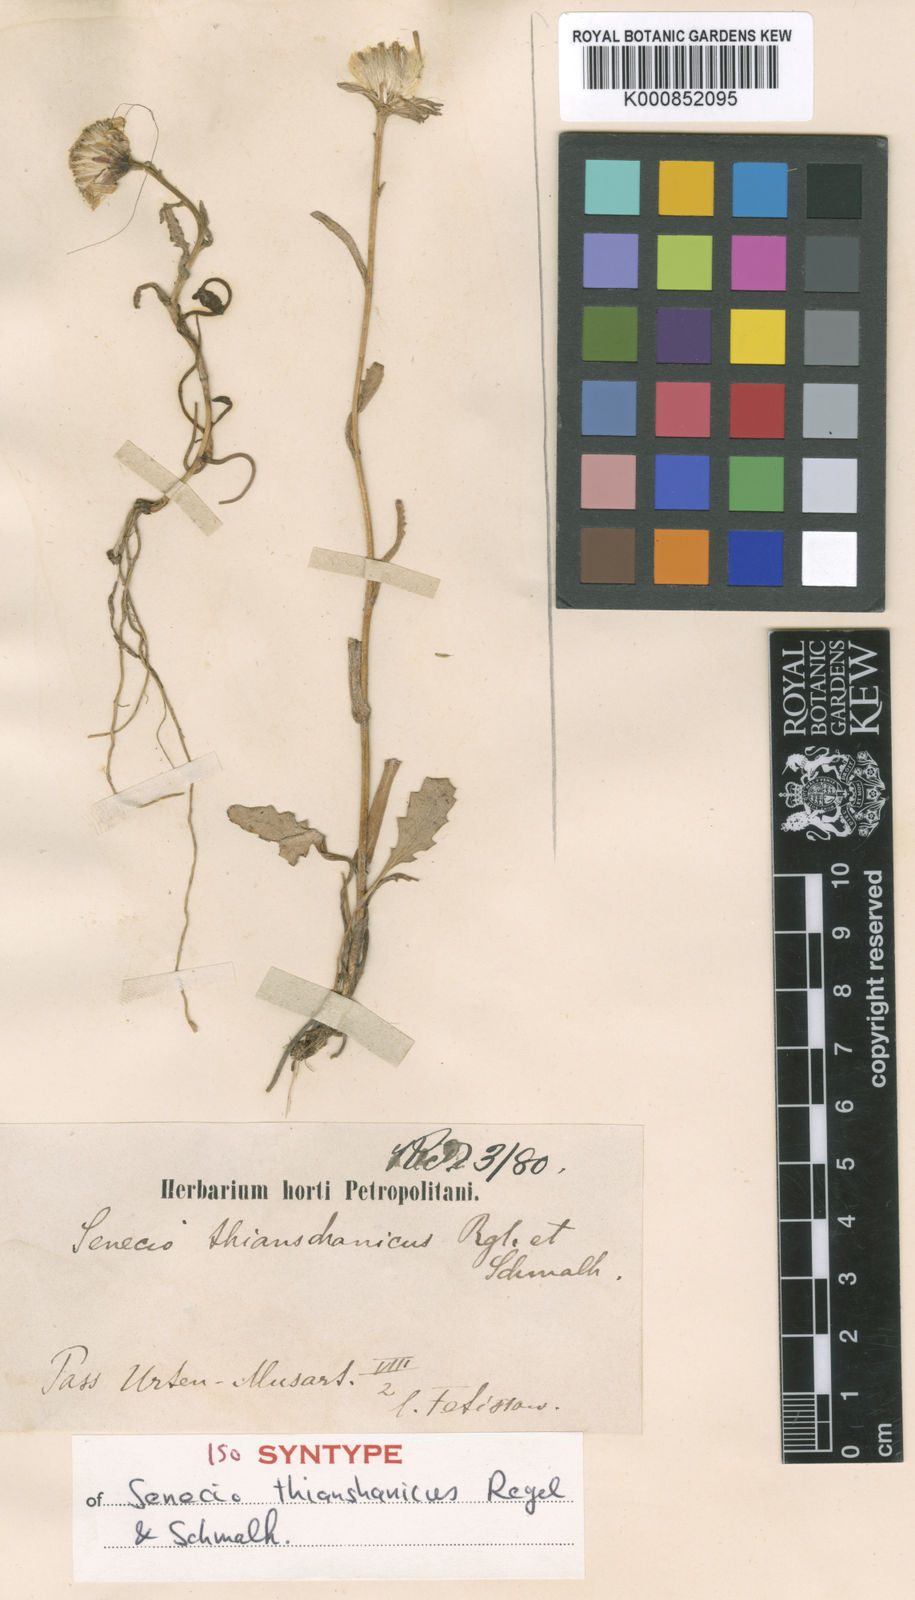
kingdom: Plantae
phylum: Tracheophyta
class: Magnoliopsida
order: Asterales
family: Asteraceae
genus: Senecio
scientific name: Senecio thianschanicus
